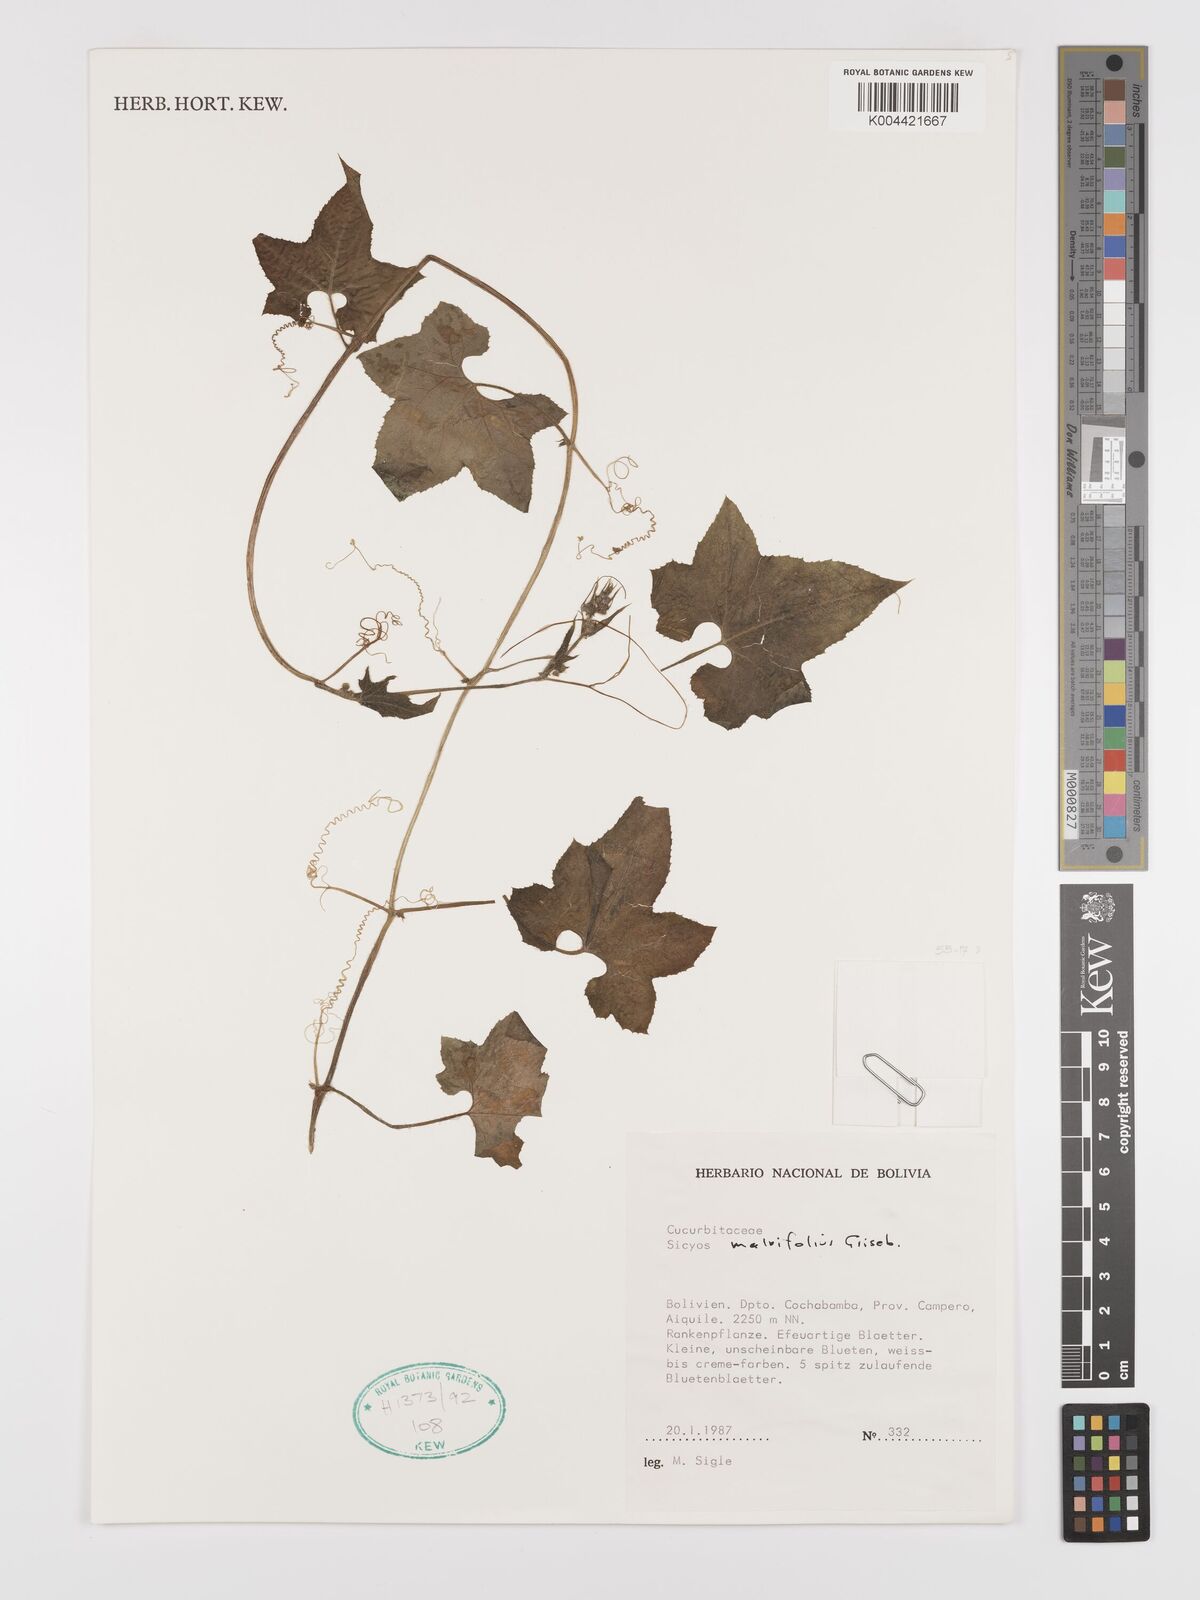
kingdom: Plantae
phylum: Tracheophyta
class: Magnoliopsida
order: Cucurbitales
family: Cucurbitaceae
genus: Sicyos
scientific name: Sicyos malvifolius
